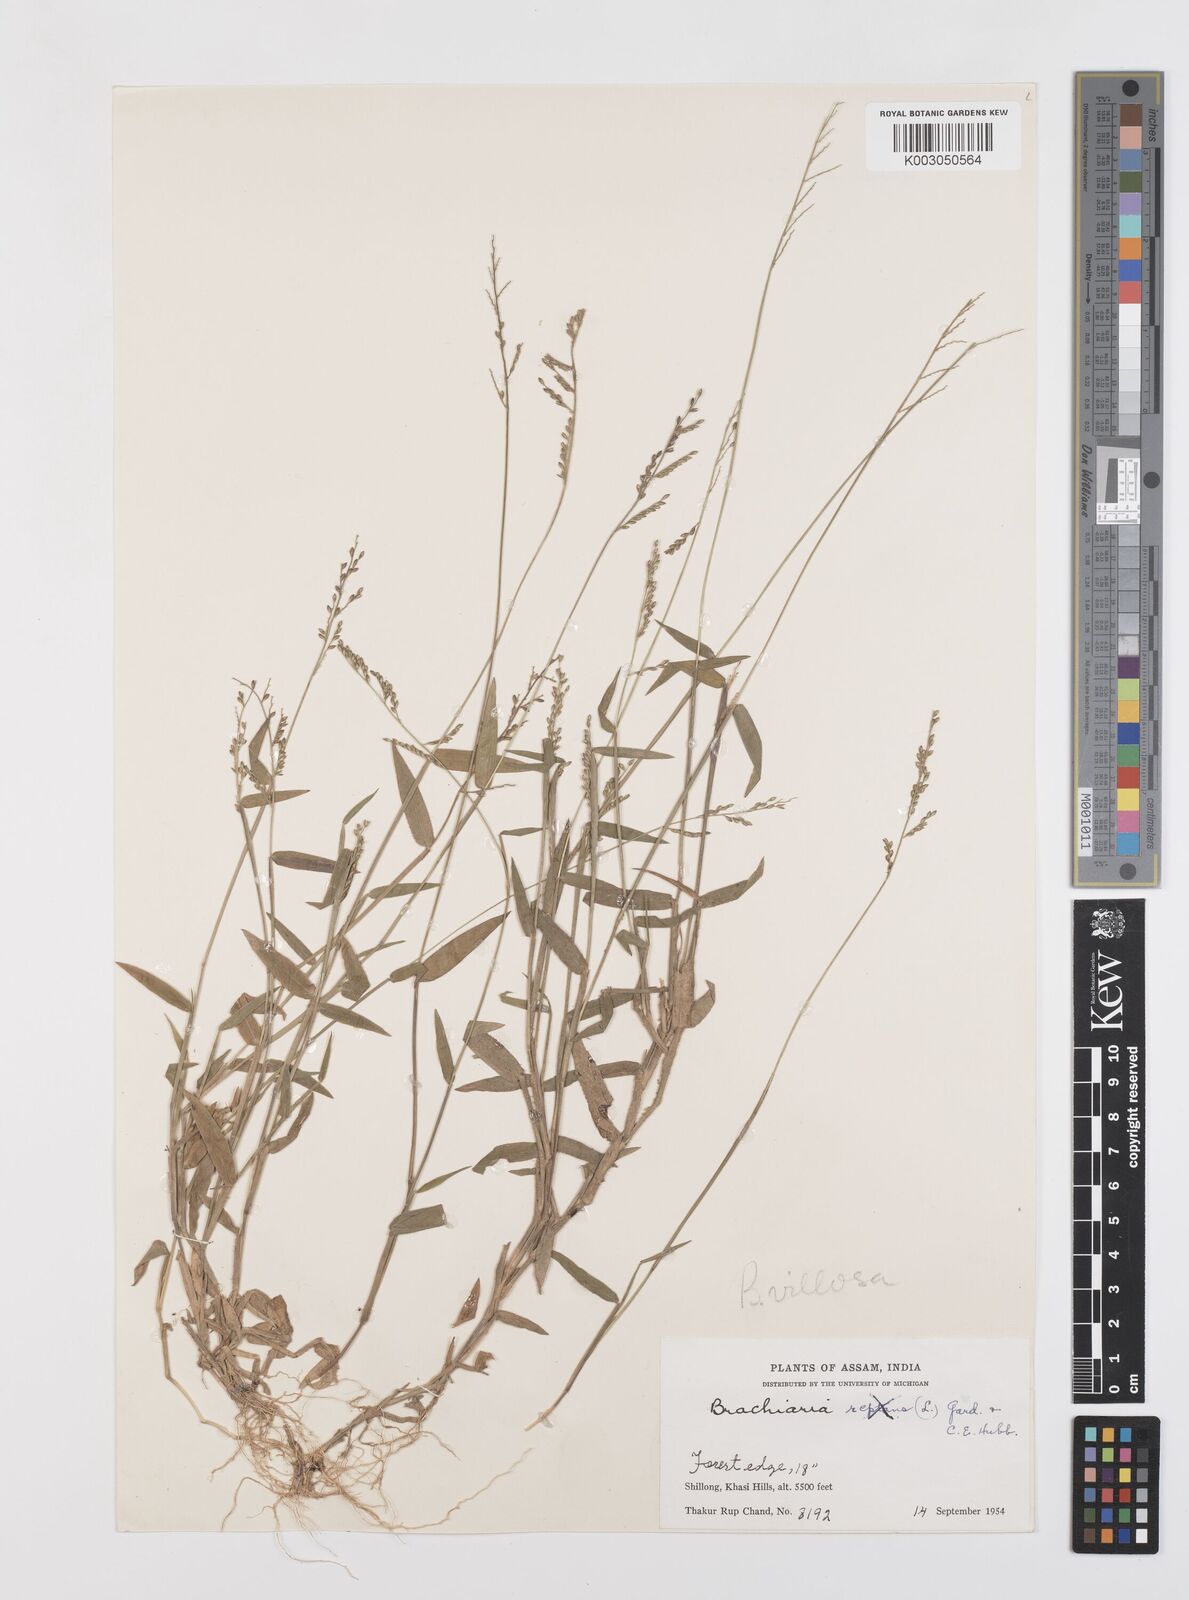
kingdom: Plantae
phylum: Tracheophyta
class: Liliopsida
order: Poales
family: Poaceae
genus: Urochloa
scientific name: Urochloa villosa
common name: Hairy signalgrass
